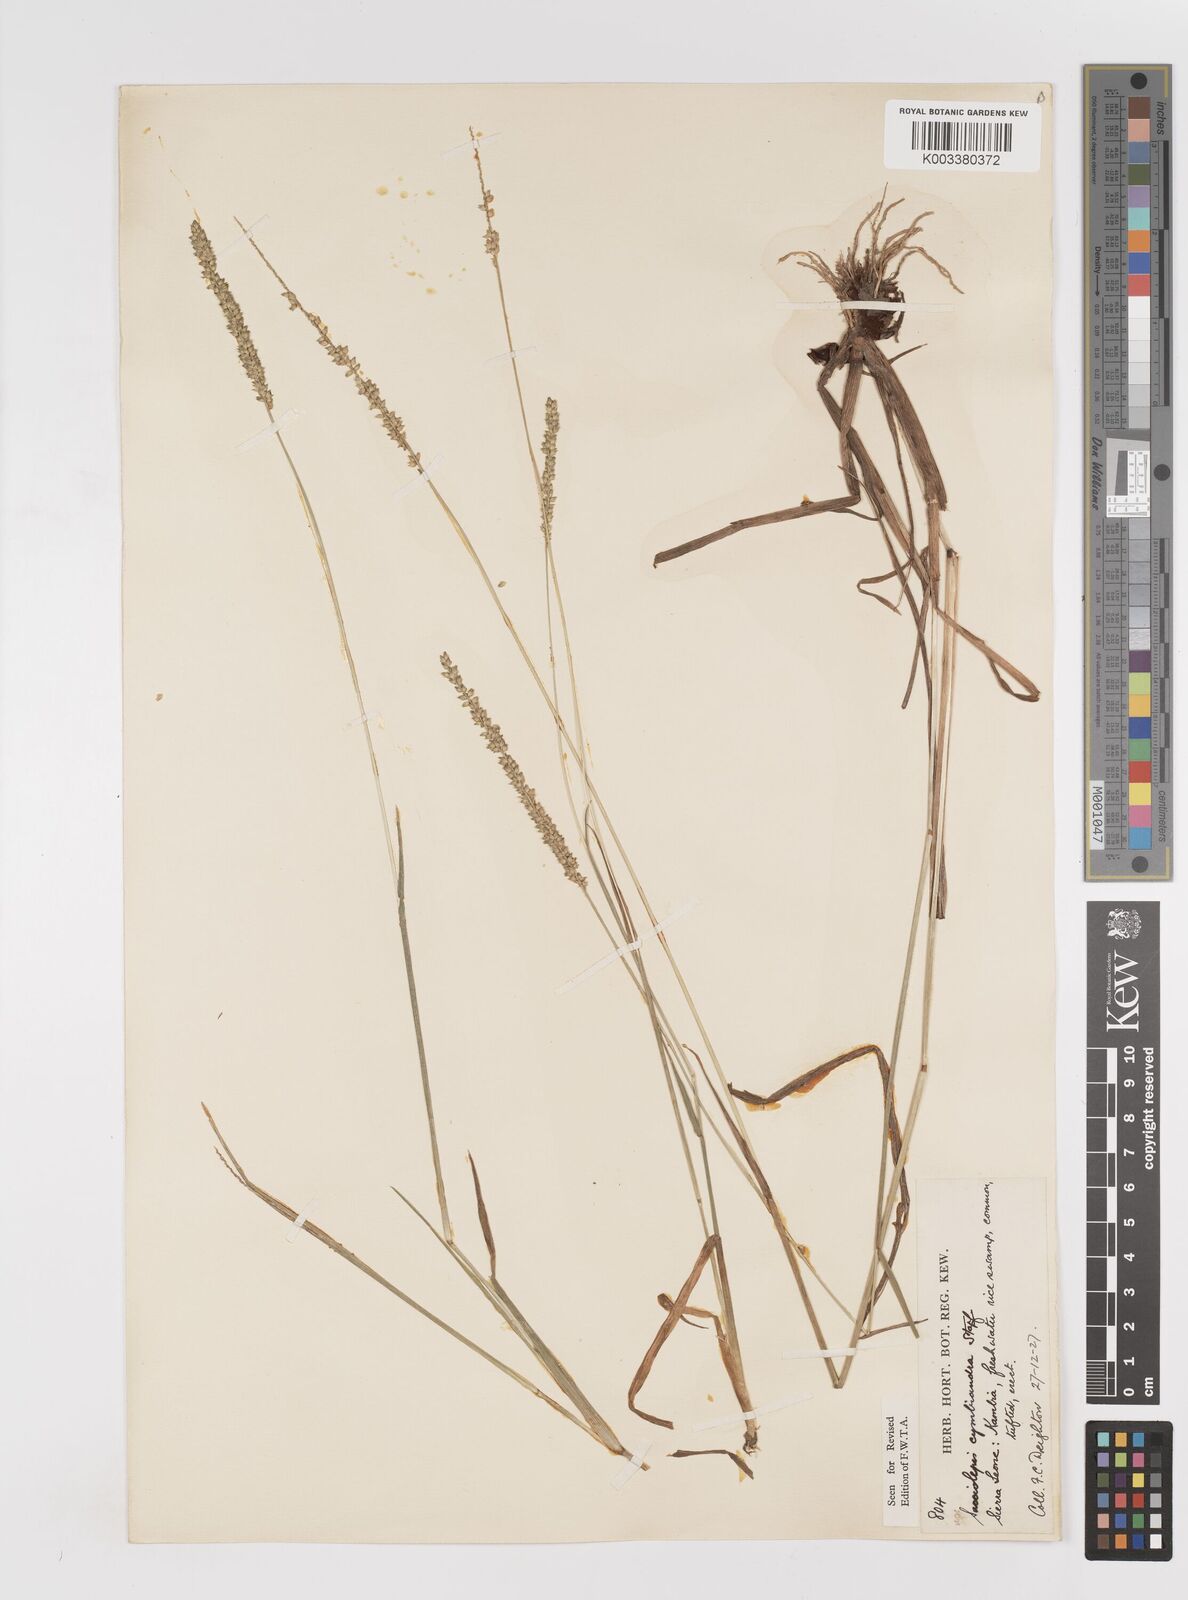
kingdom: Plantae
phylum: Tracheophyta
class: Liliopsida
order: Poales
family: Poaceae
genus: Sacciolepis
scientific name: Sacciolepis cymbiandra
